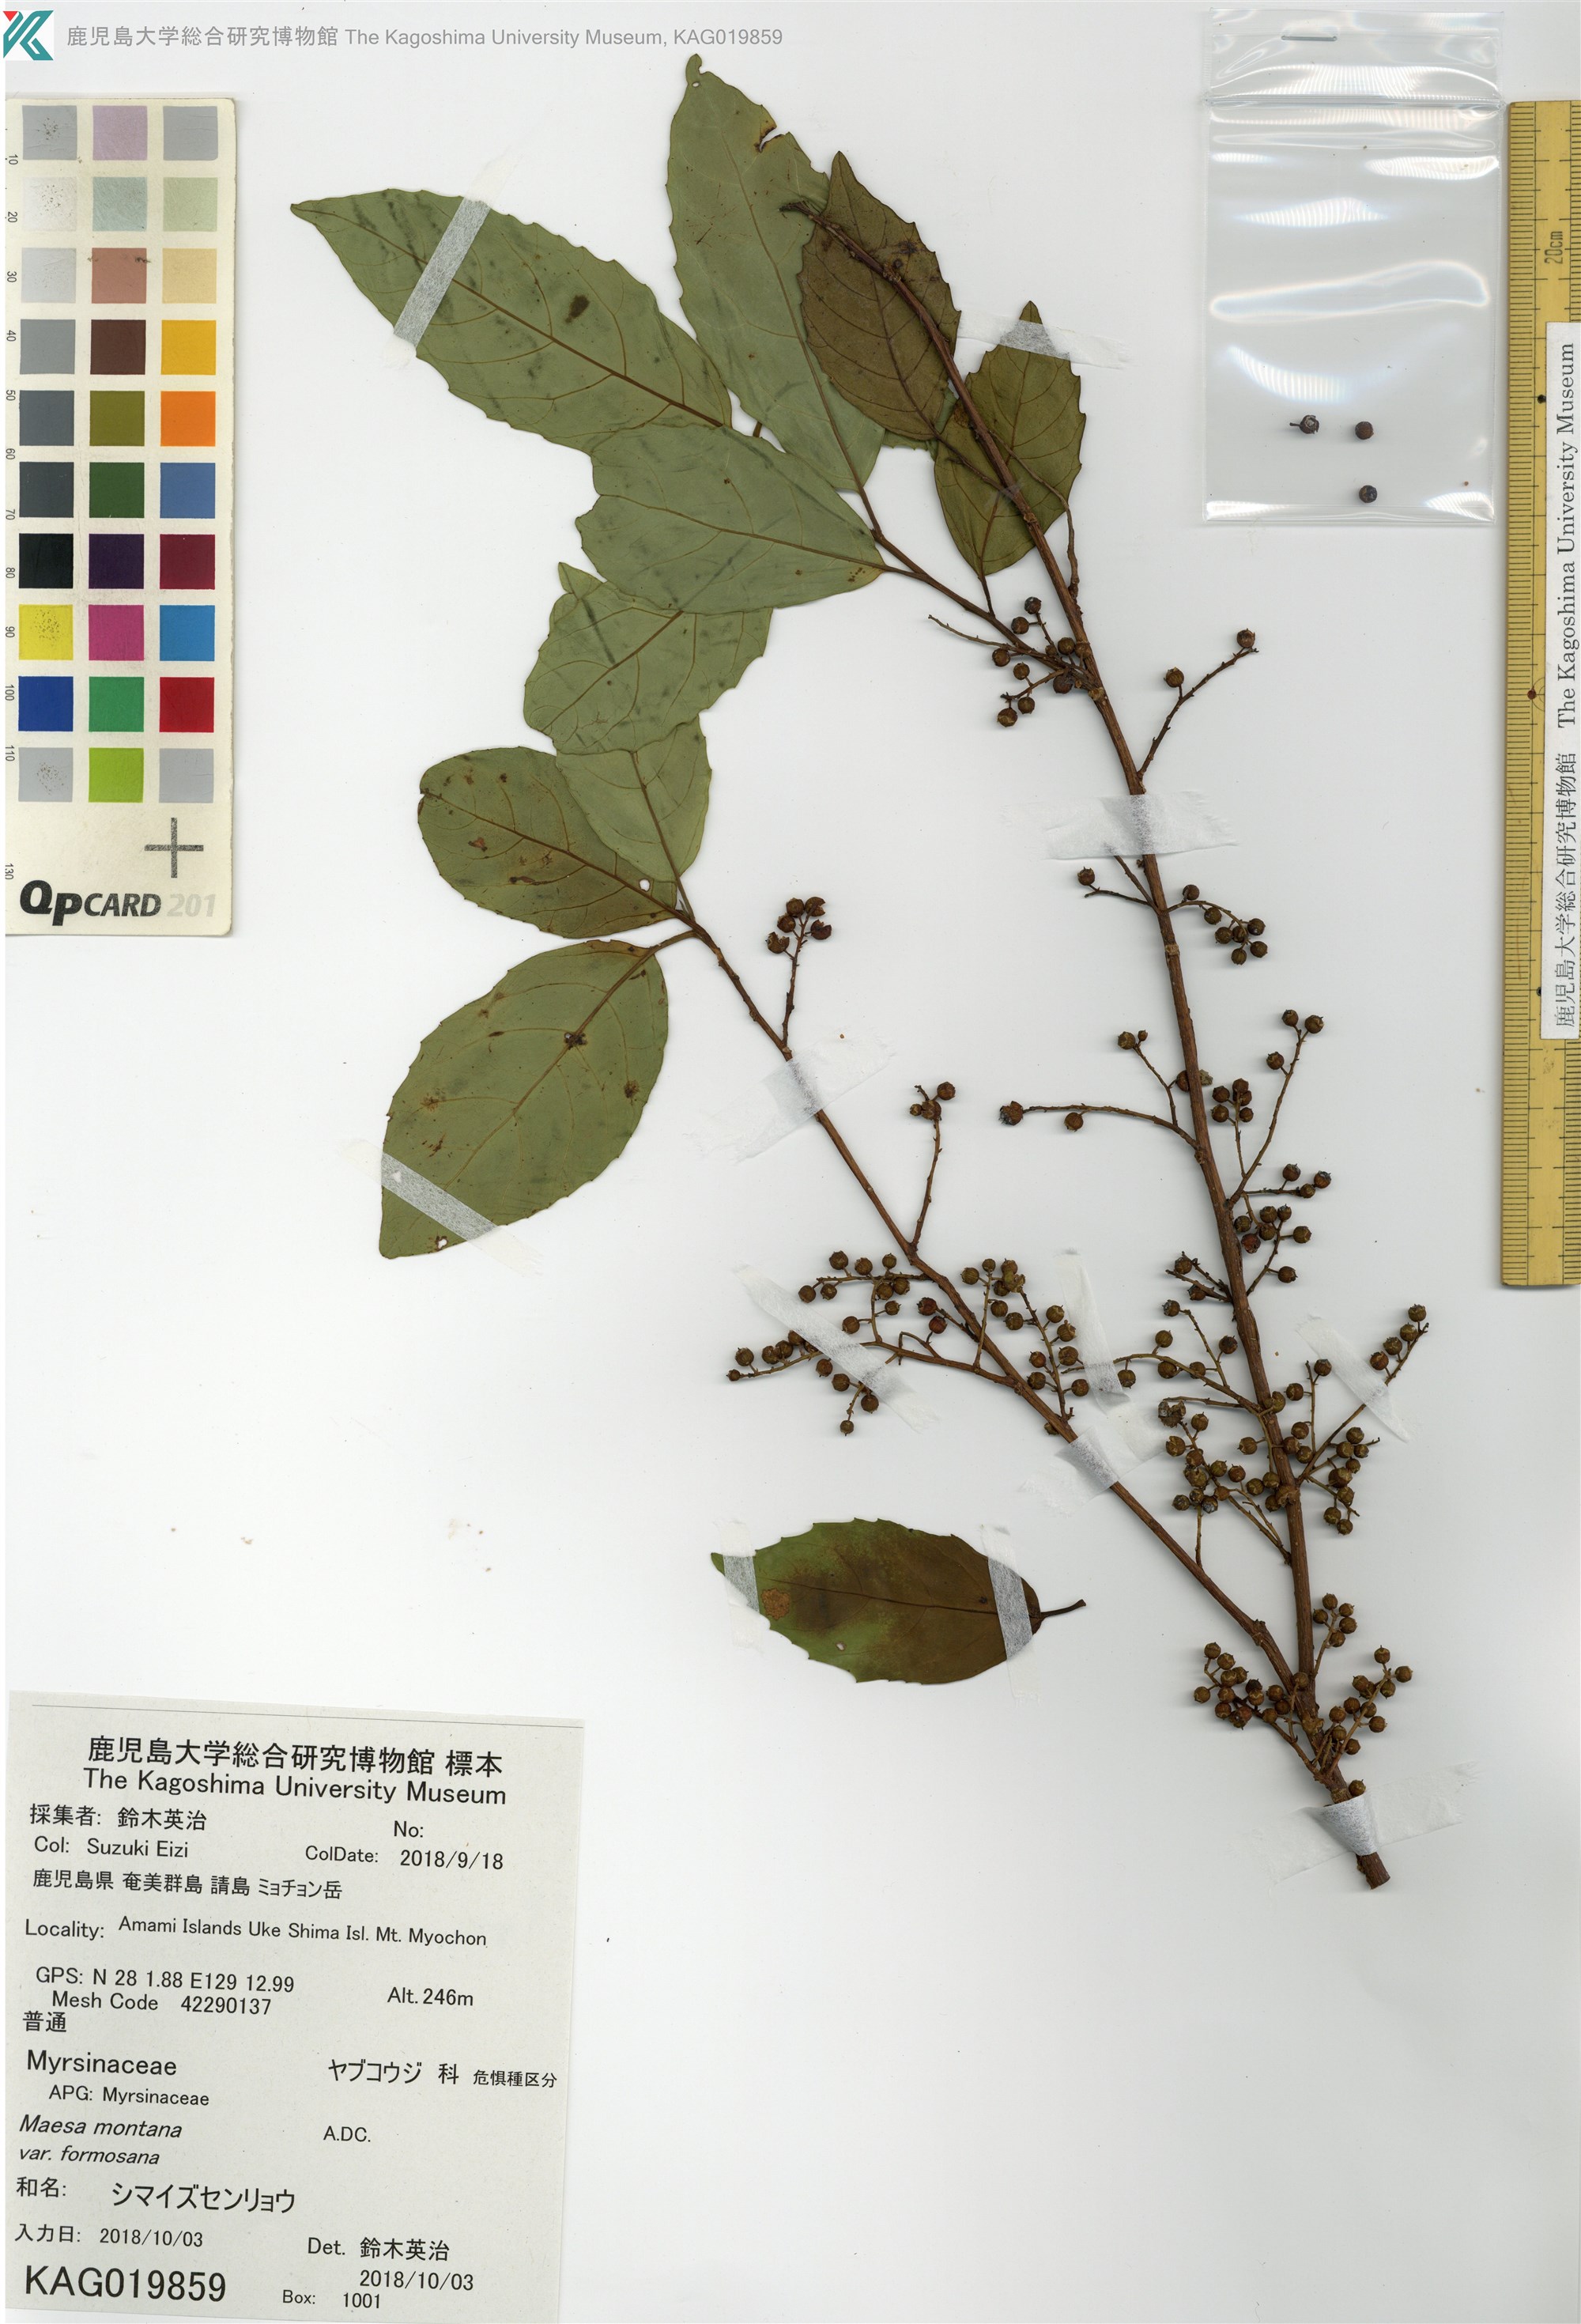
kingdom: Plantae
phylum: Tracheophyta
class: Magnoliopsida
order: Ericales
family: Primulaceae
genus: Maesa
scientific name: Maesa perlaria
